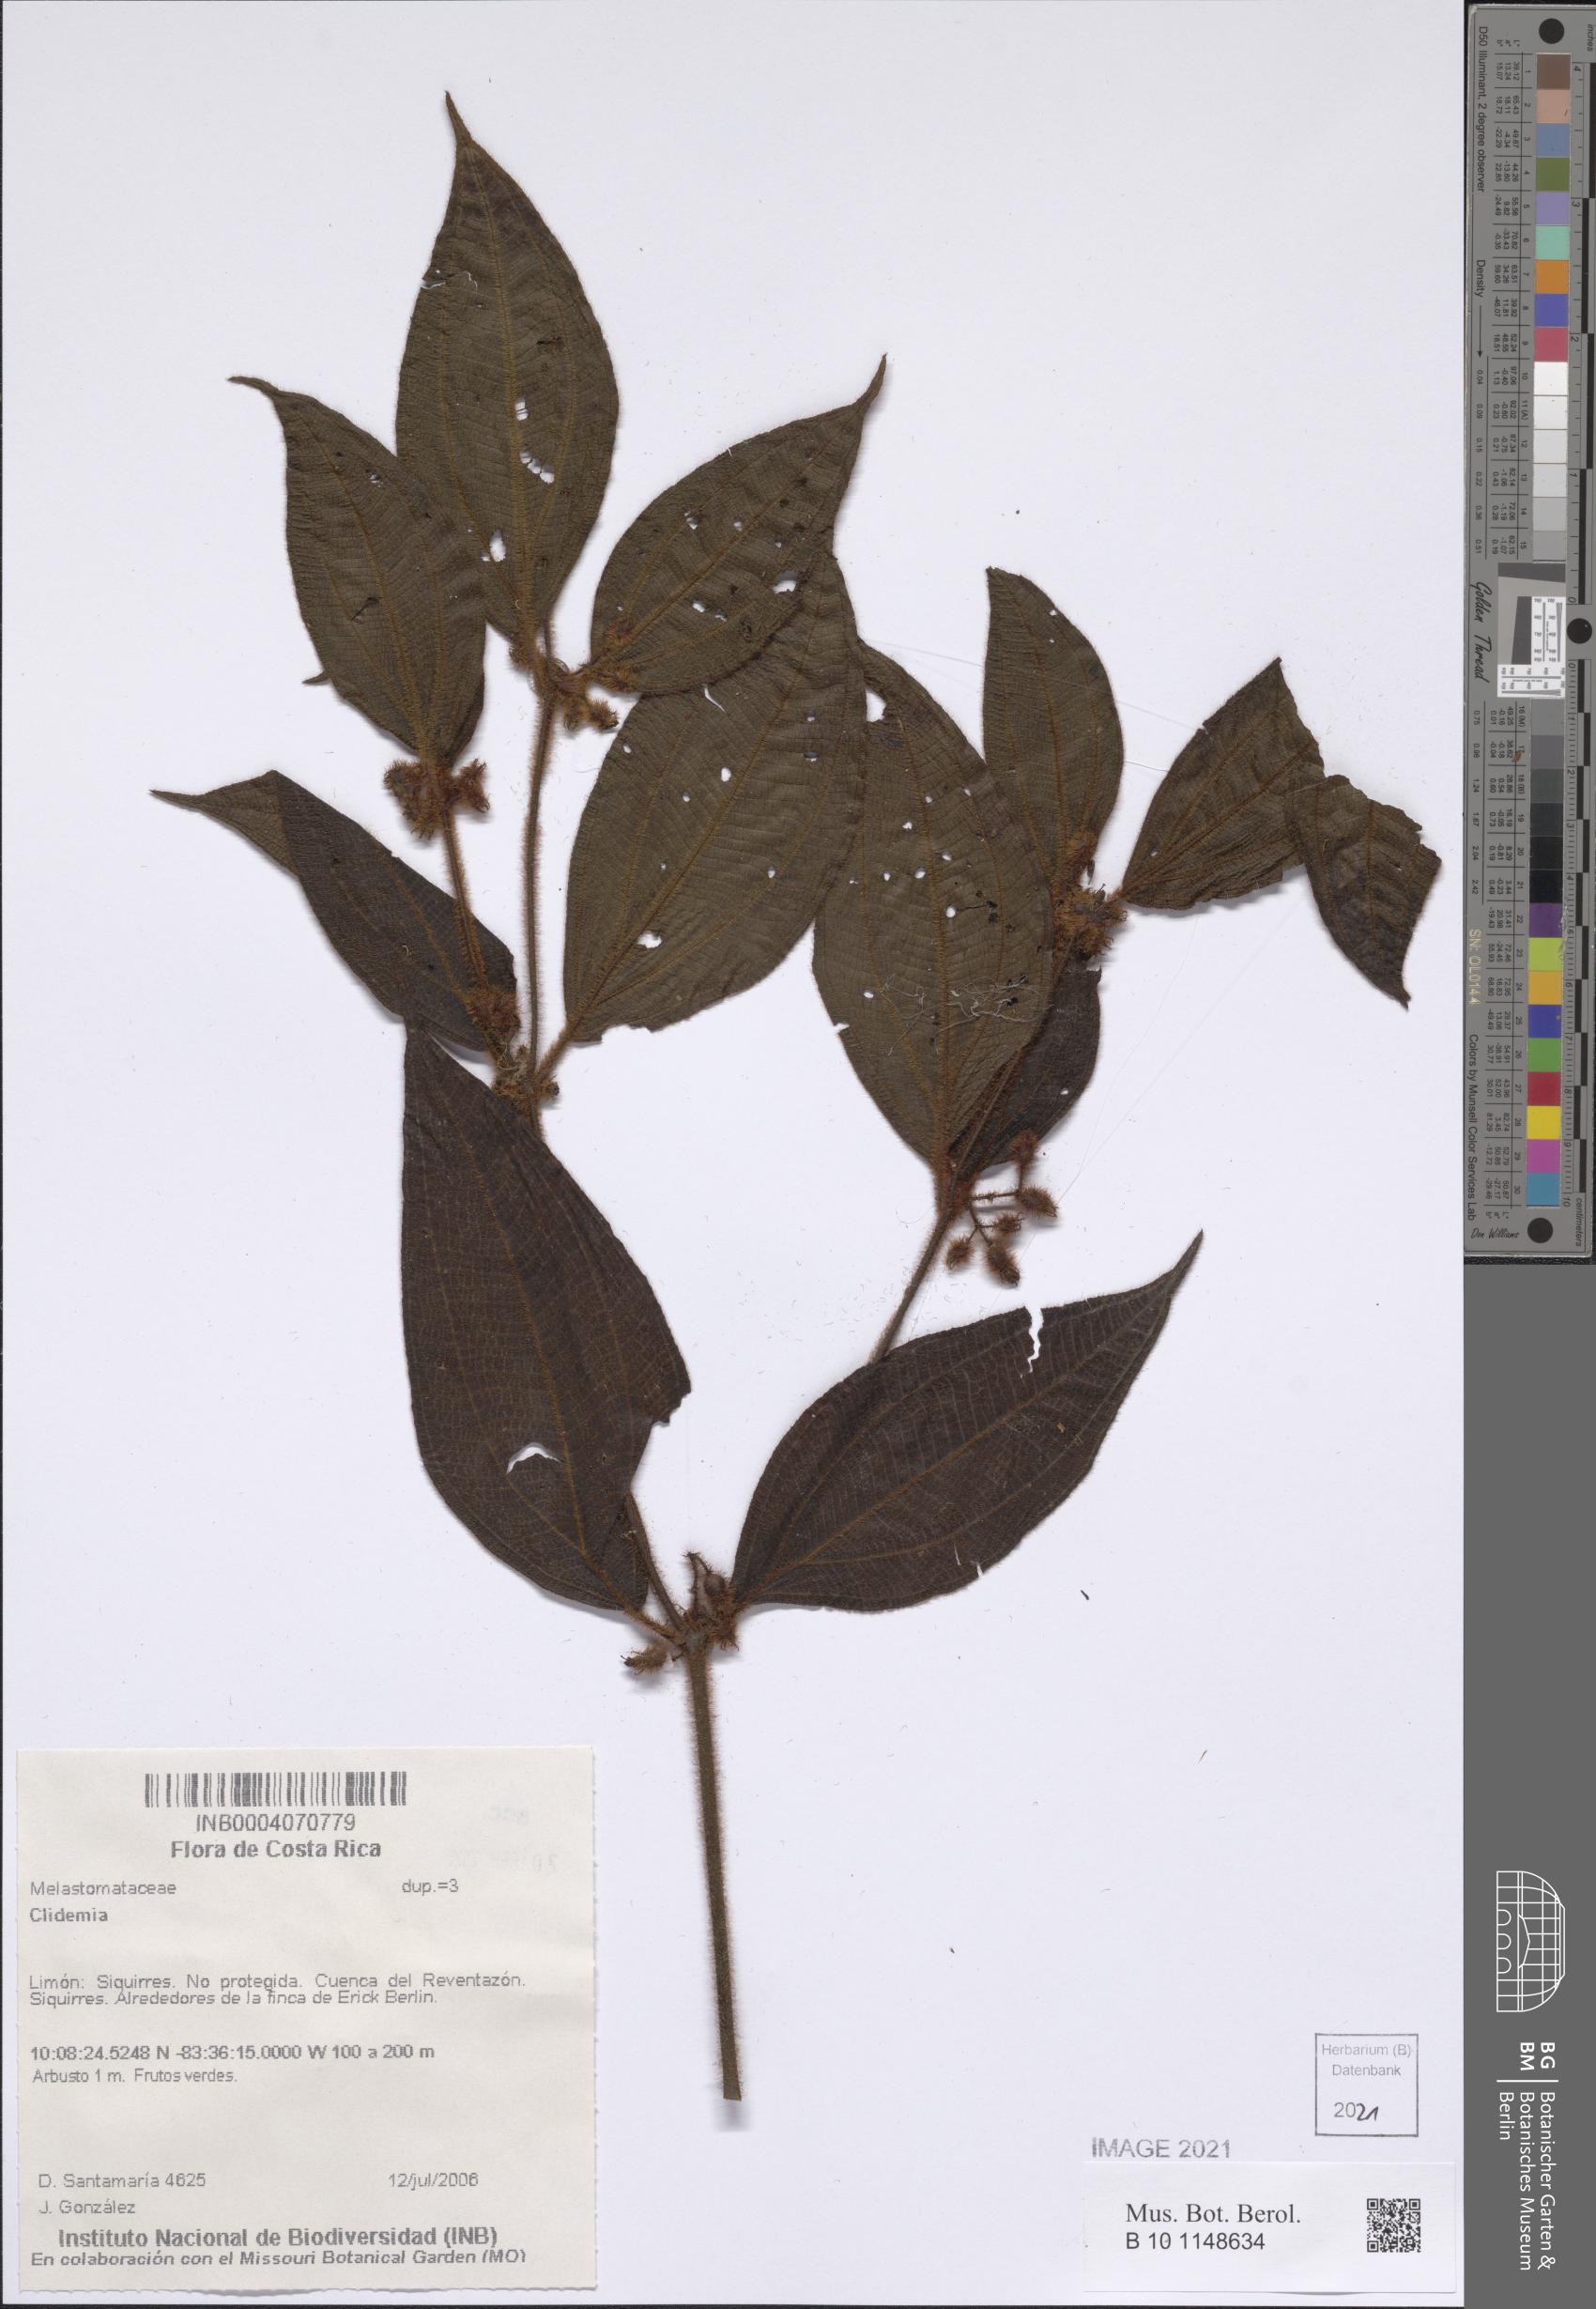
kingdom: Plantae
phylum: Tracheophyta
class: Magnoliopsida
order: Myrtales
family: Melastomataceae
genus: Miconia
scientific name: Miconia
